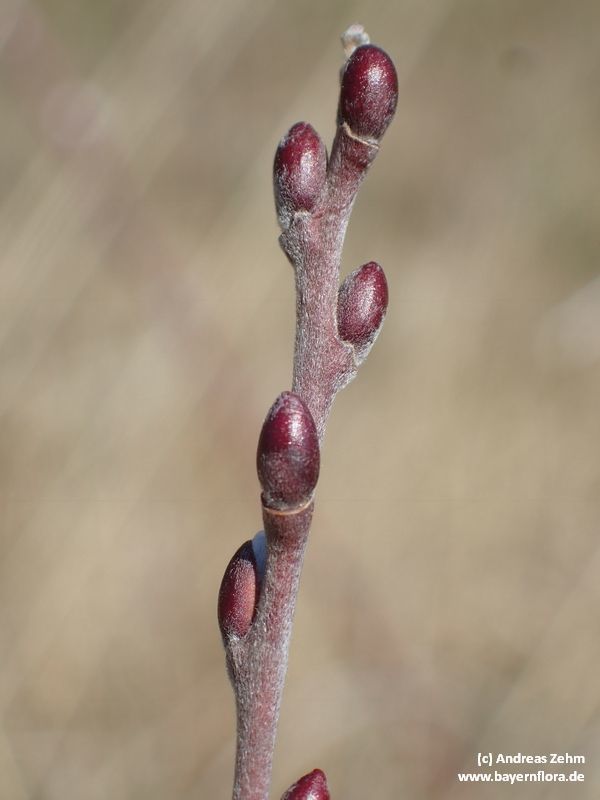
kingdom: Plantae
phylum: Tracheophyta
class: Magnoliopsida
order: Malpighiales
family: Salicaceae
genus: Salix
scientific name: Salix repens
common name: Creeping willow
